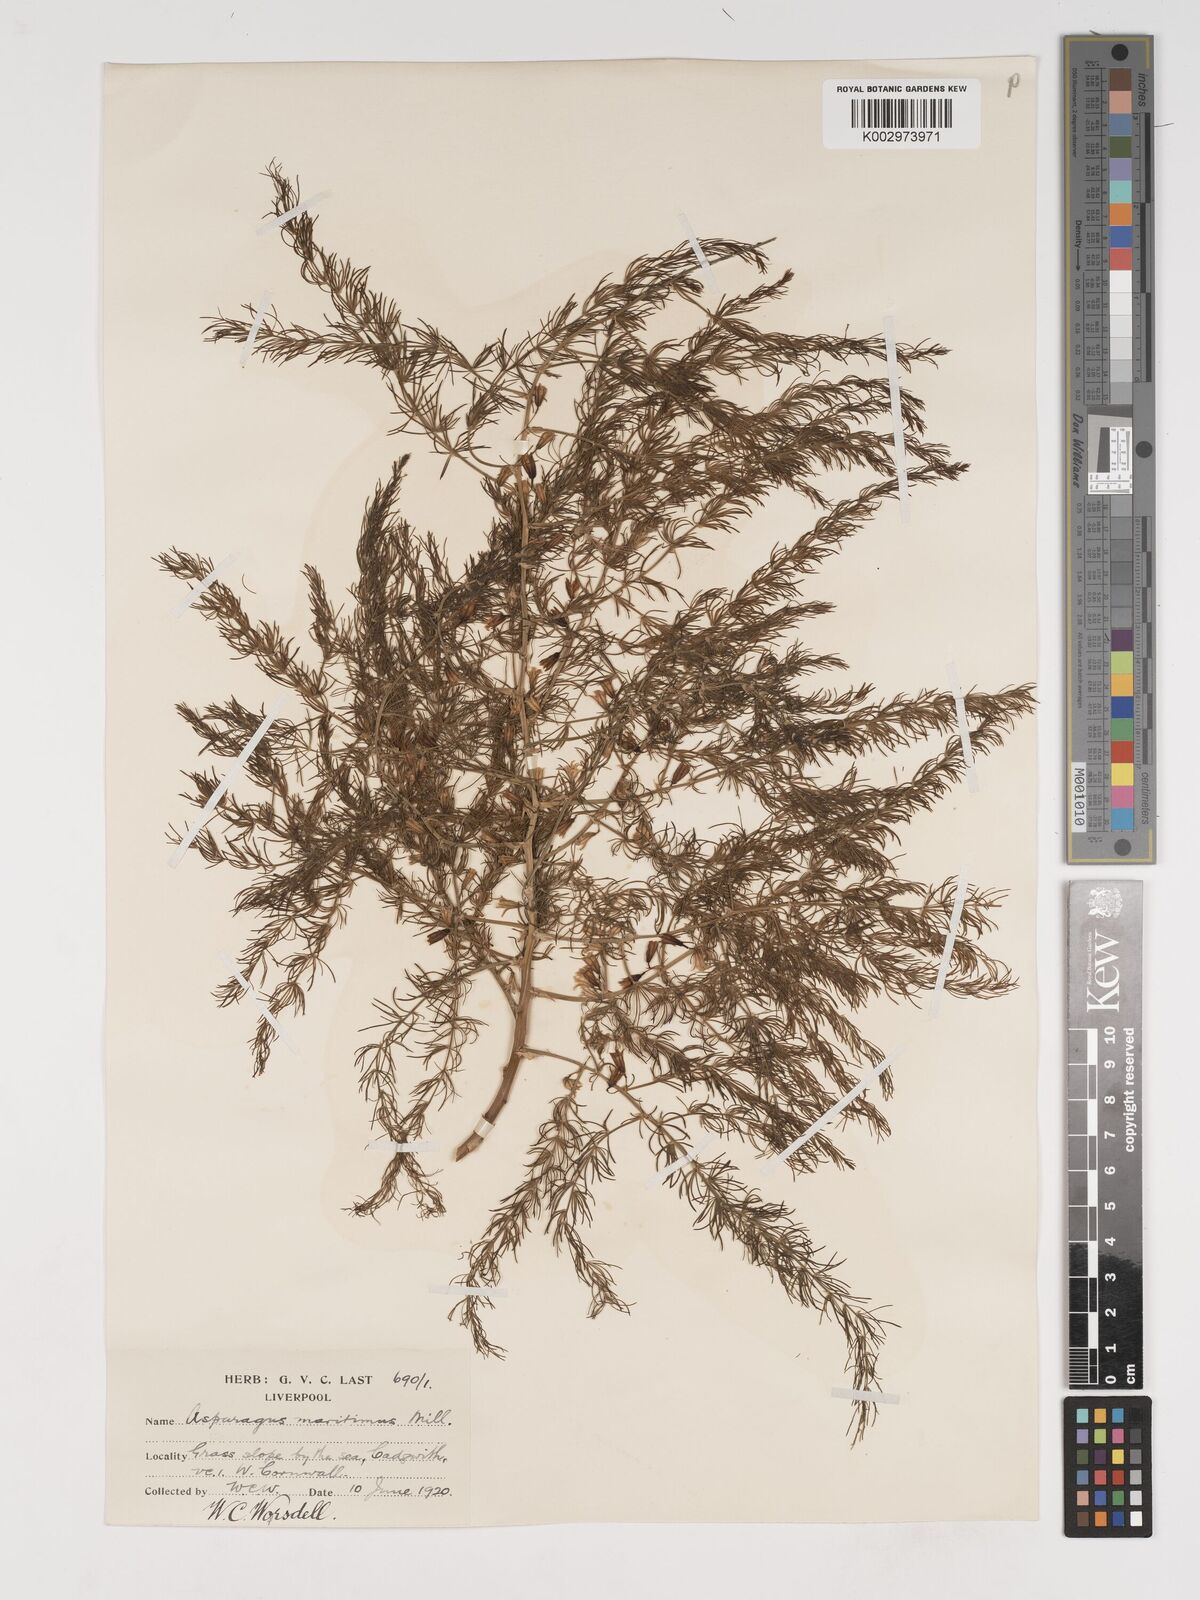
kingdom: Plantae
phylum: Tracheophyta
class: Liliopsida
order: Asparagales
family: Asparagaceae
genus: Asparagus
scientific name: Asparagus maritimus
